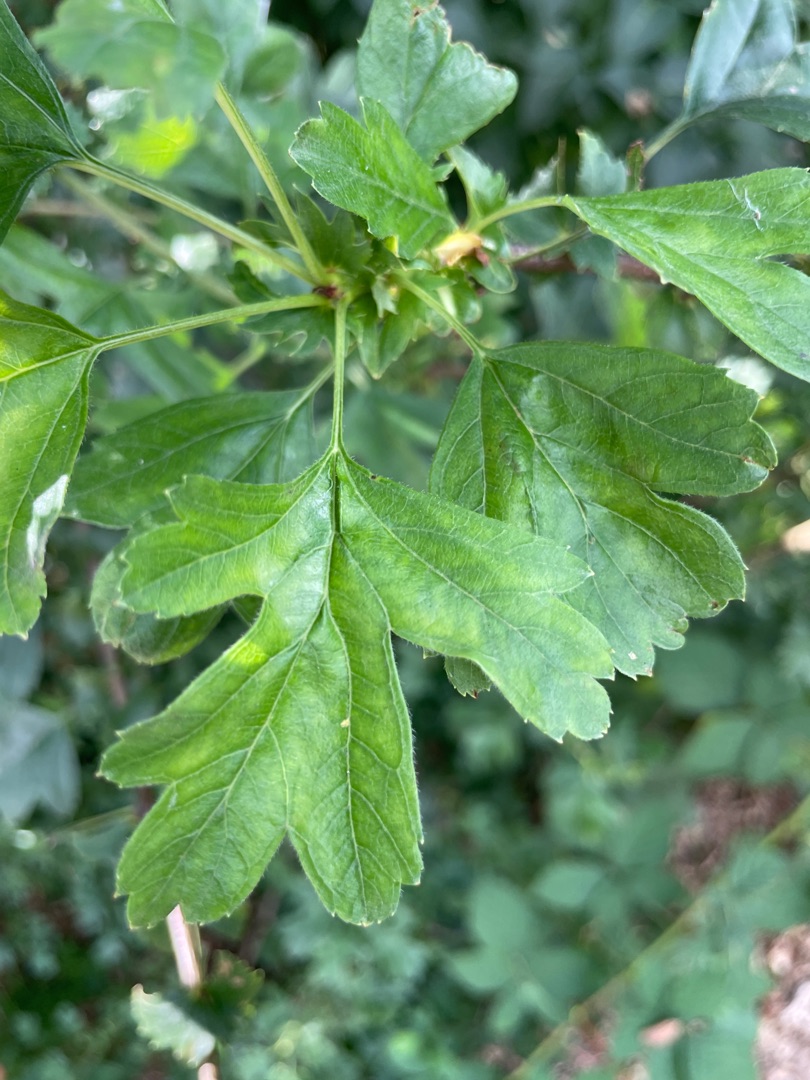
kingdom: Plantae
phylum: Tracheophyta
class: Magnoliopsida
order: Rosales
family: Rosaceae
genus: Crataegus
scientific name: Crataegus monogyna
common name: Engriflet hvidtjørn
